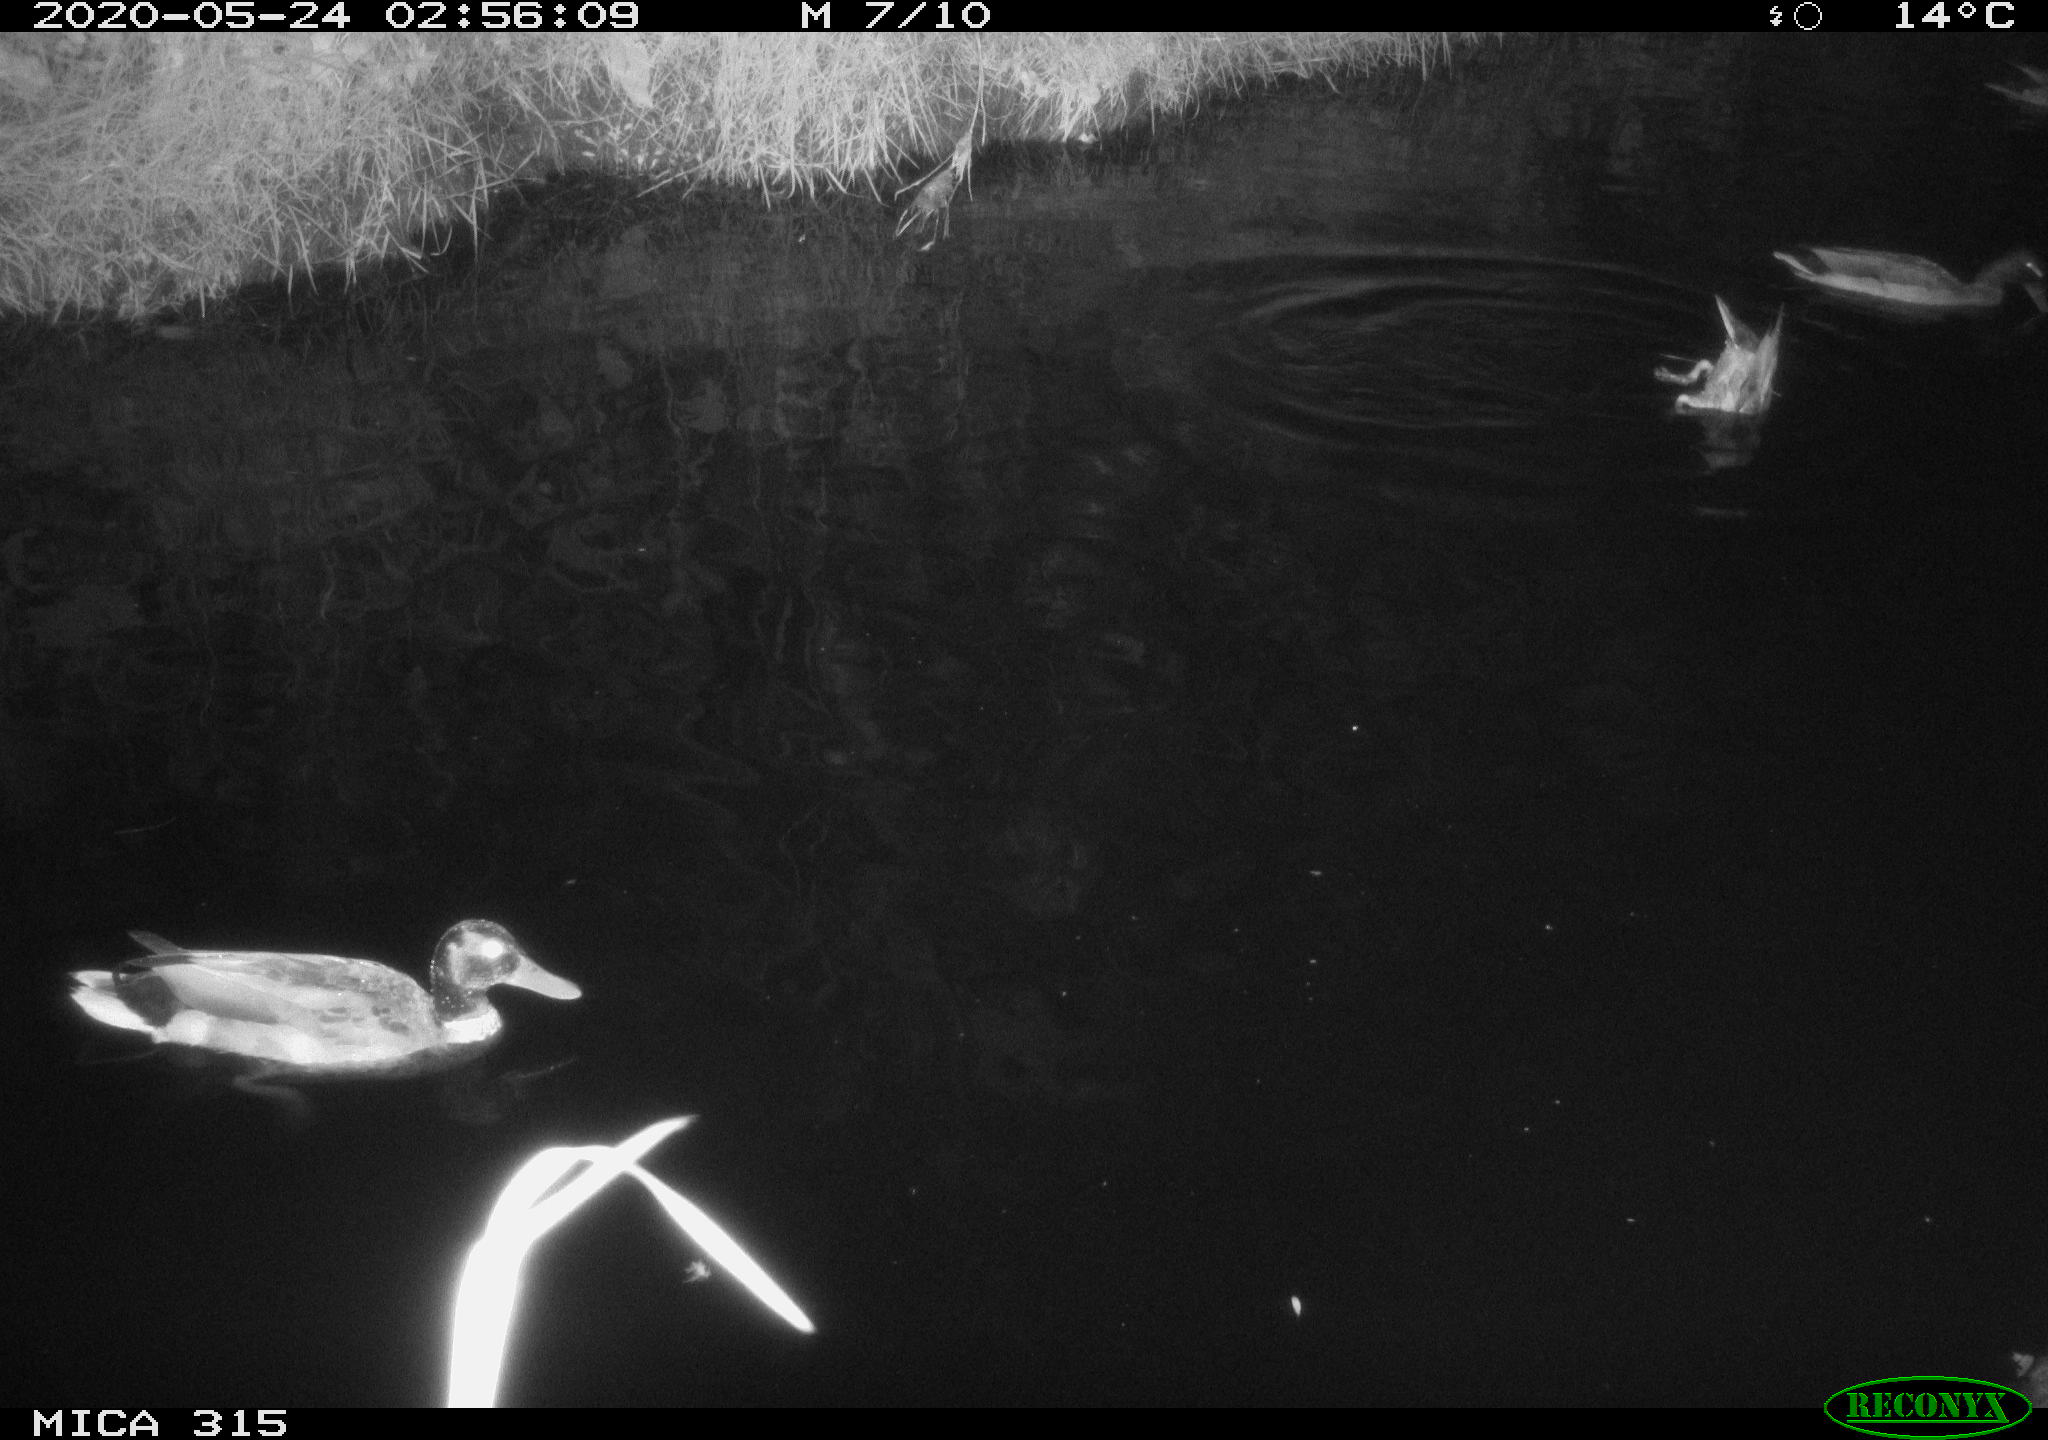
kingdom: Animalia
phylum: Chordata
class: Aves
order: Anseriformes
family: Anatidae
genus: Anas
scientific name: Anas platyrhynchos
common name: Mallard
